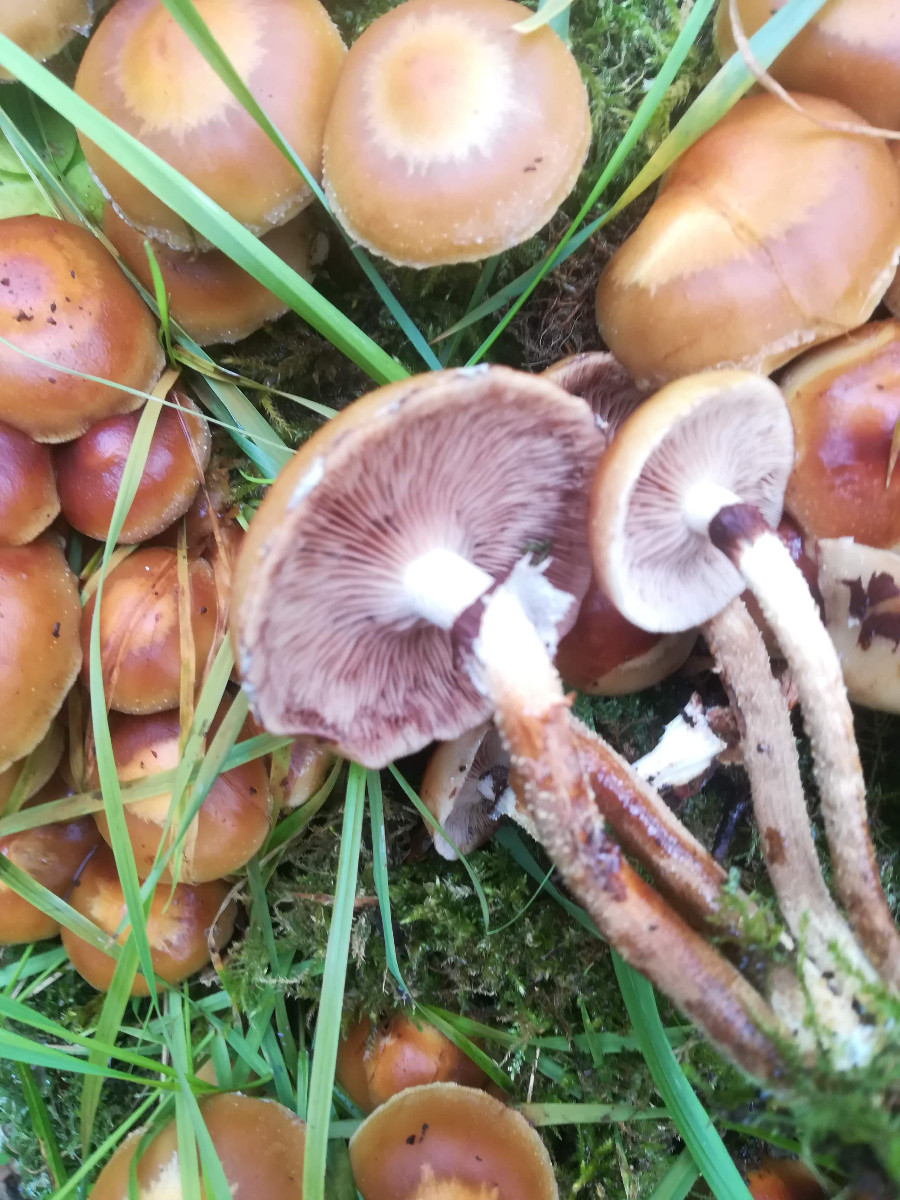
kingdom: Fungi
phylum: Basidiomycota
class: Agaricomycetes
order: Agaricales
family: Strophariaceae
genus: Kuehneromyces
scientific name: Kuehneromyces mutabilis
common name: foranderlig skælhat
